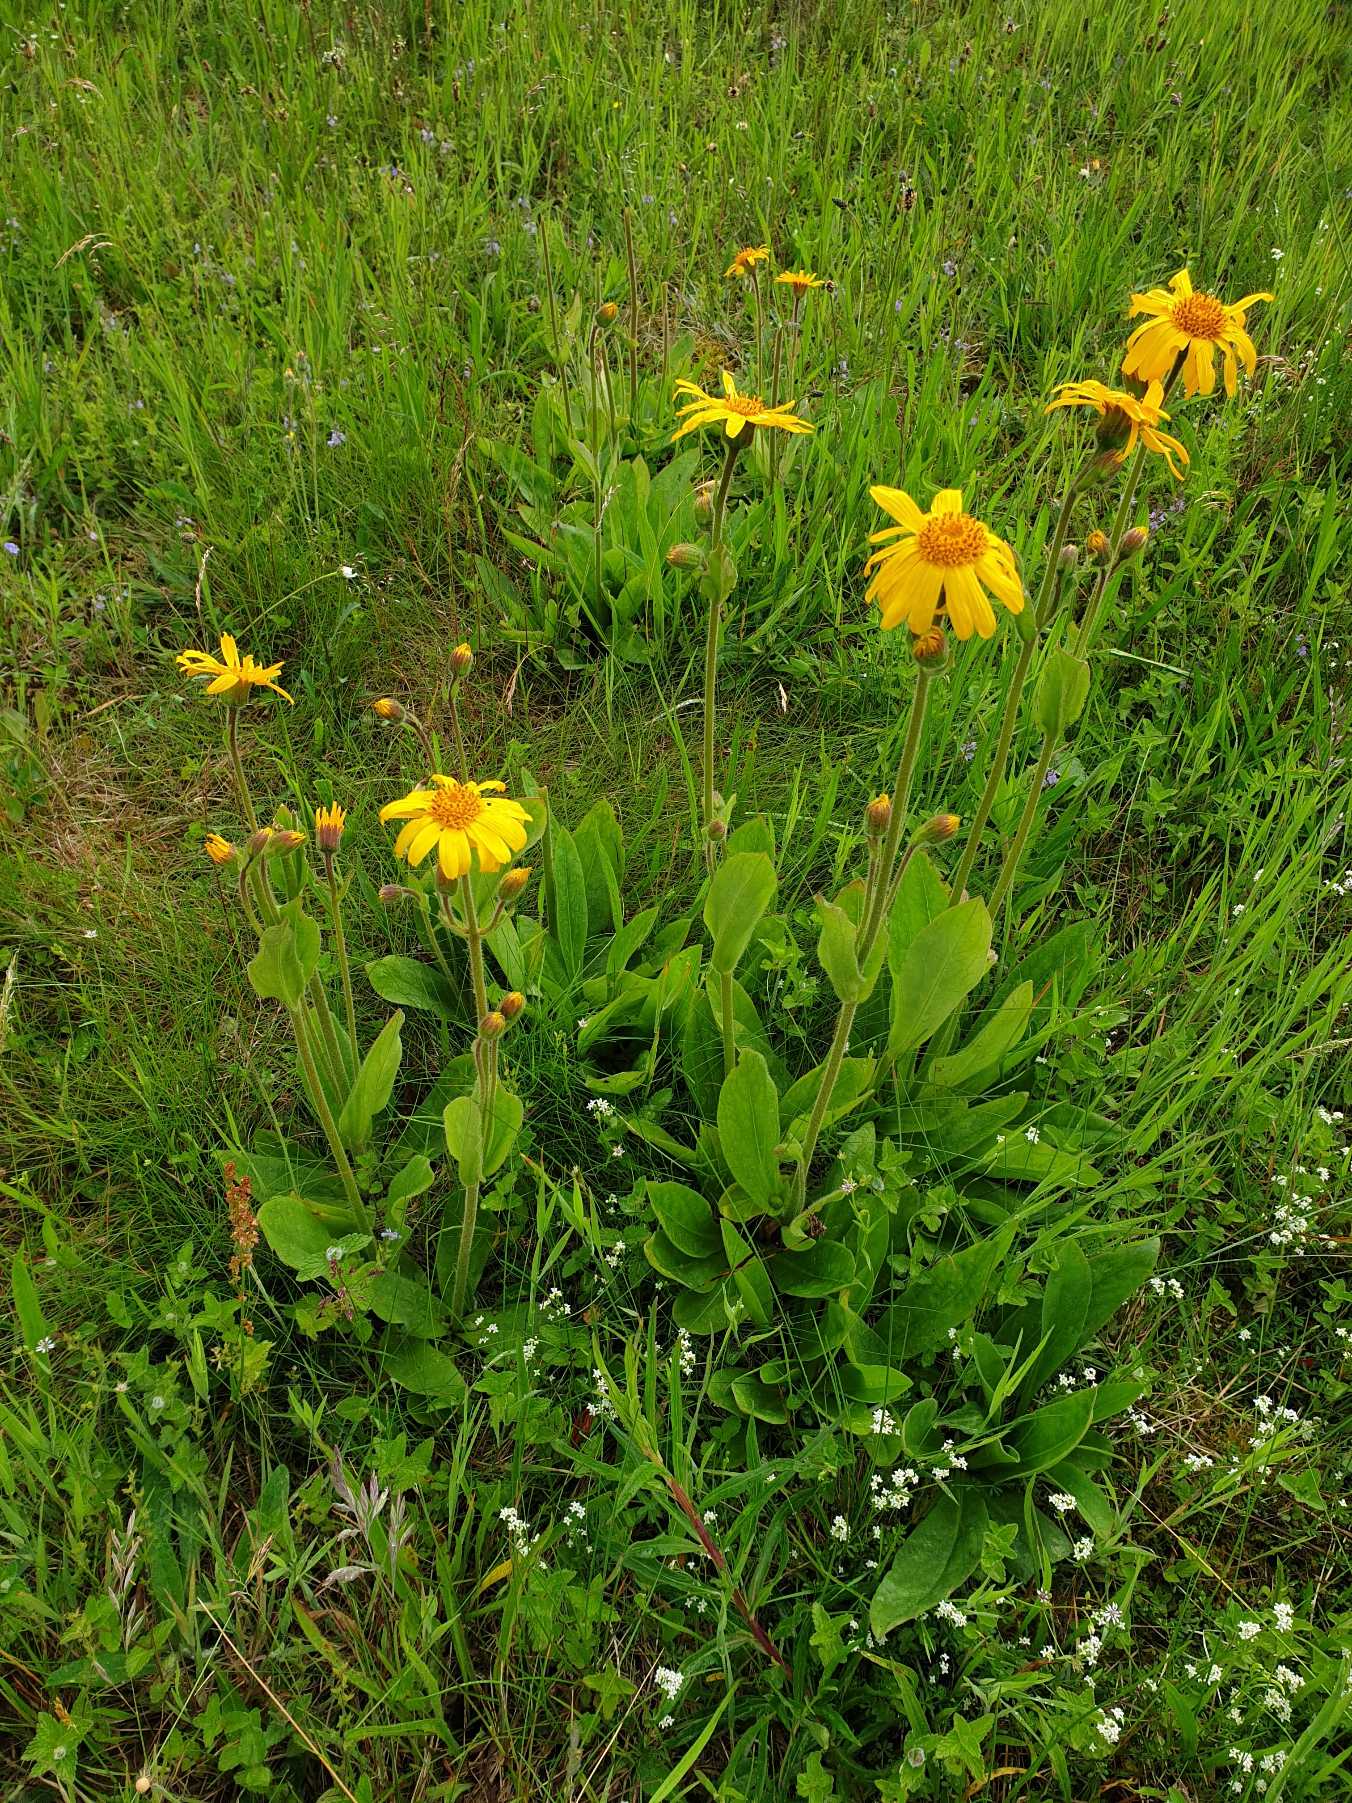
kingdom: Plantae
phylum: Tracheophyta
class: Magnoliopsida
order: Asterales
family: Asteraceae
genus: Arnica
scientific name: Arnica montana
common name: Guldblomme
